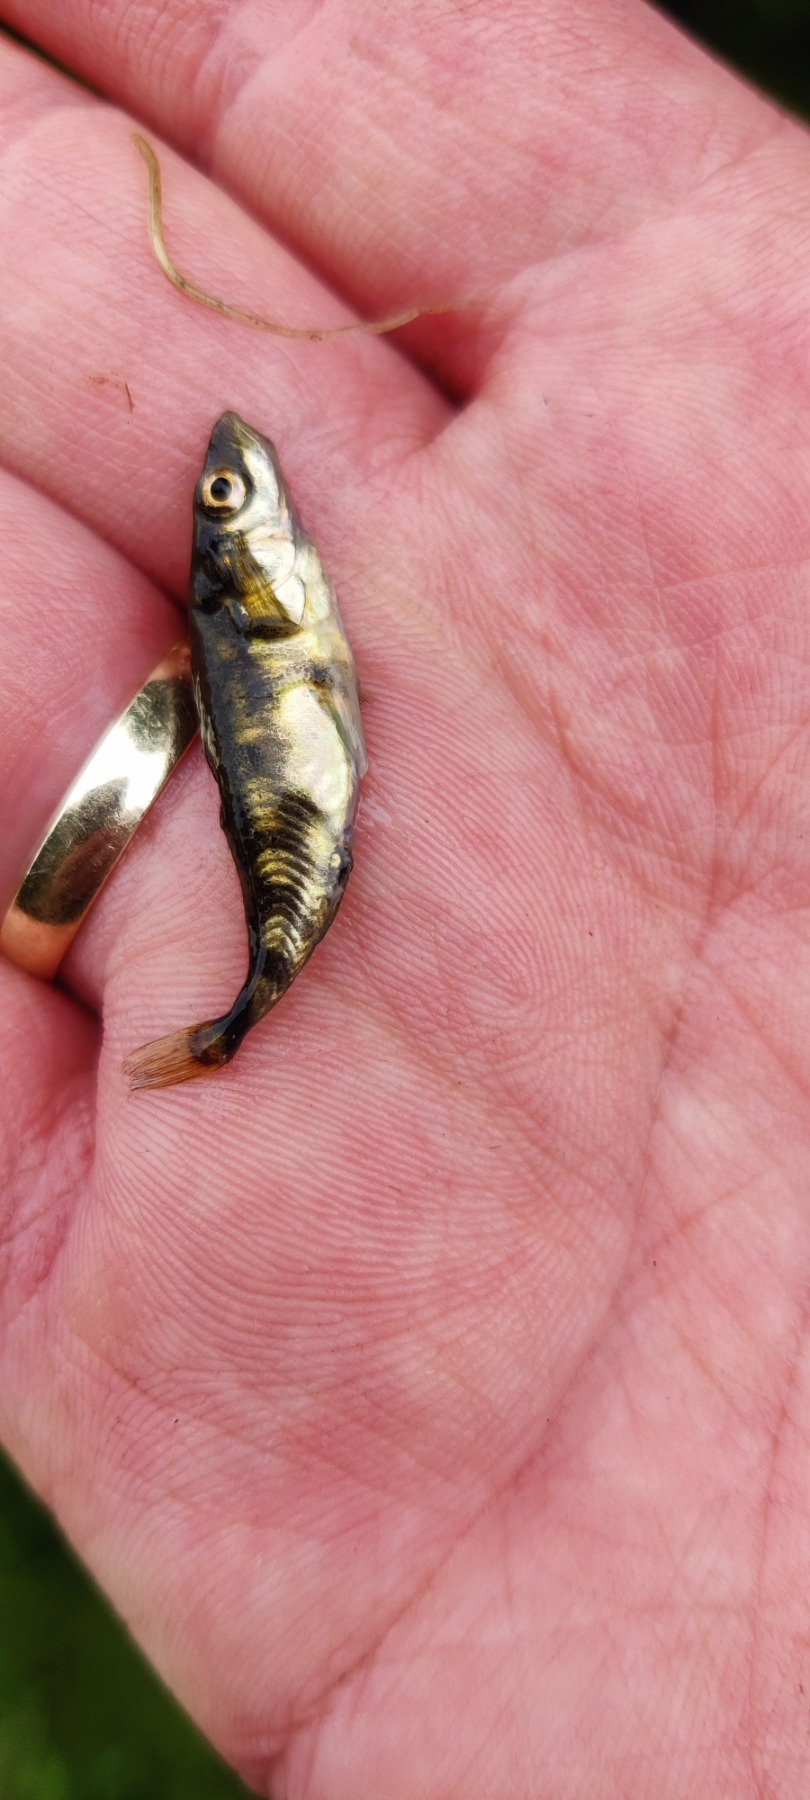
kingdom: Animalia
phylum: Chordata
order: Gasterosteiformes
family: Gasterosteidae
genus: Gasterosteus
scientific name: Gasterosteus aculeatus
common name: Trepigget hundestejle
